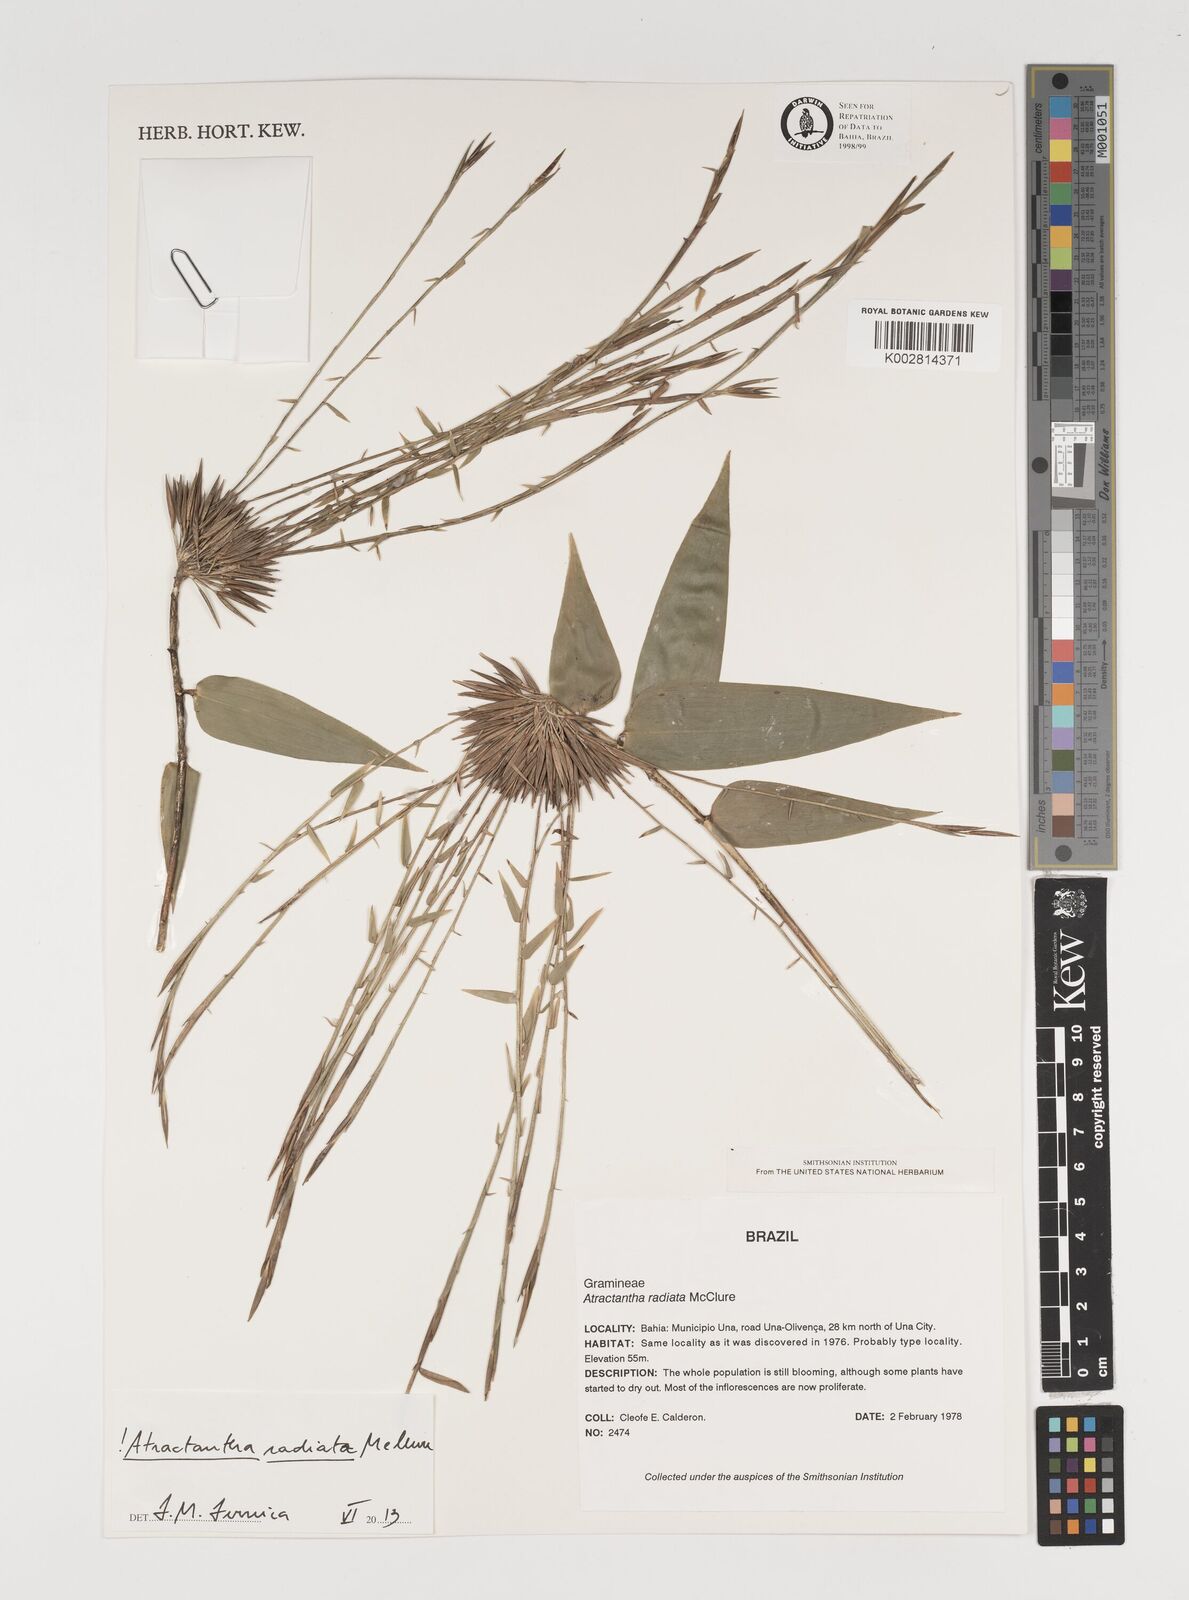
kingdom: Plantae
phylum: Tracheophyta
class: Liliopsida
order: Poales
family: Poaceae
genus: Atractantha
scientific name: Atractantha radiata
